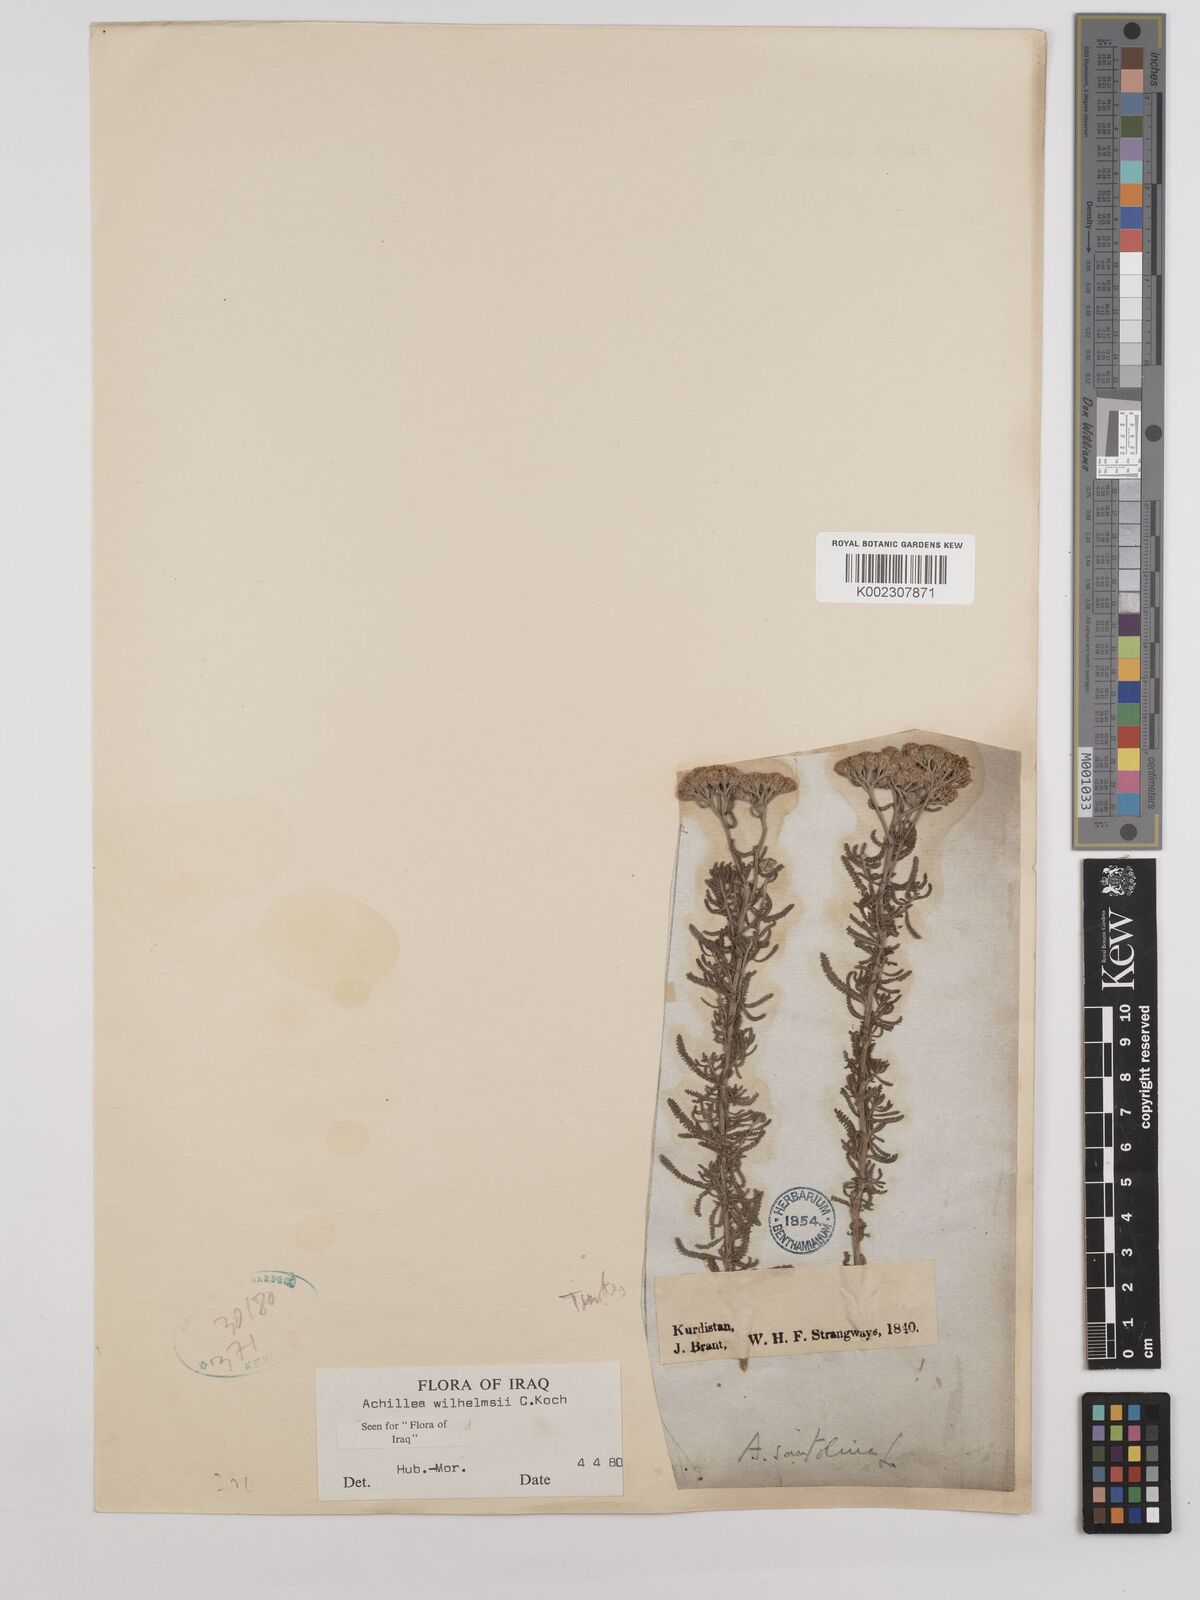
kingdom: Plantae
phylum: Tracheophyta
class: Magnoliopsida
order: Asterales
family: Asteraceae
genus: Achillea
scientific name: Achillea wilhelmsii
